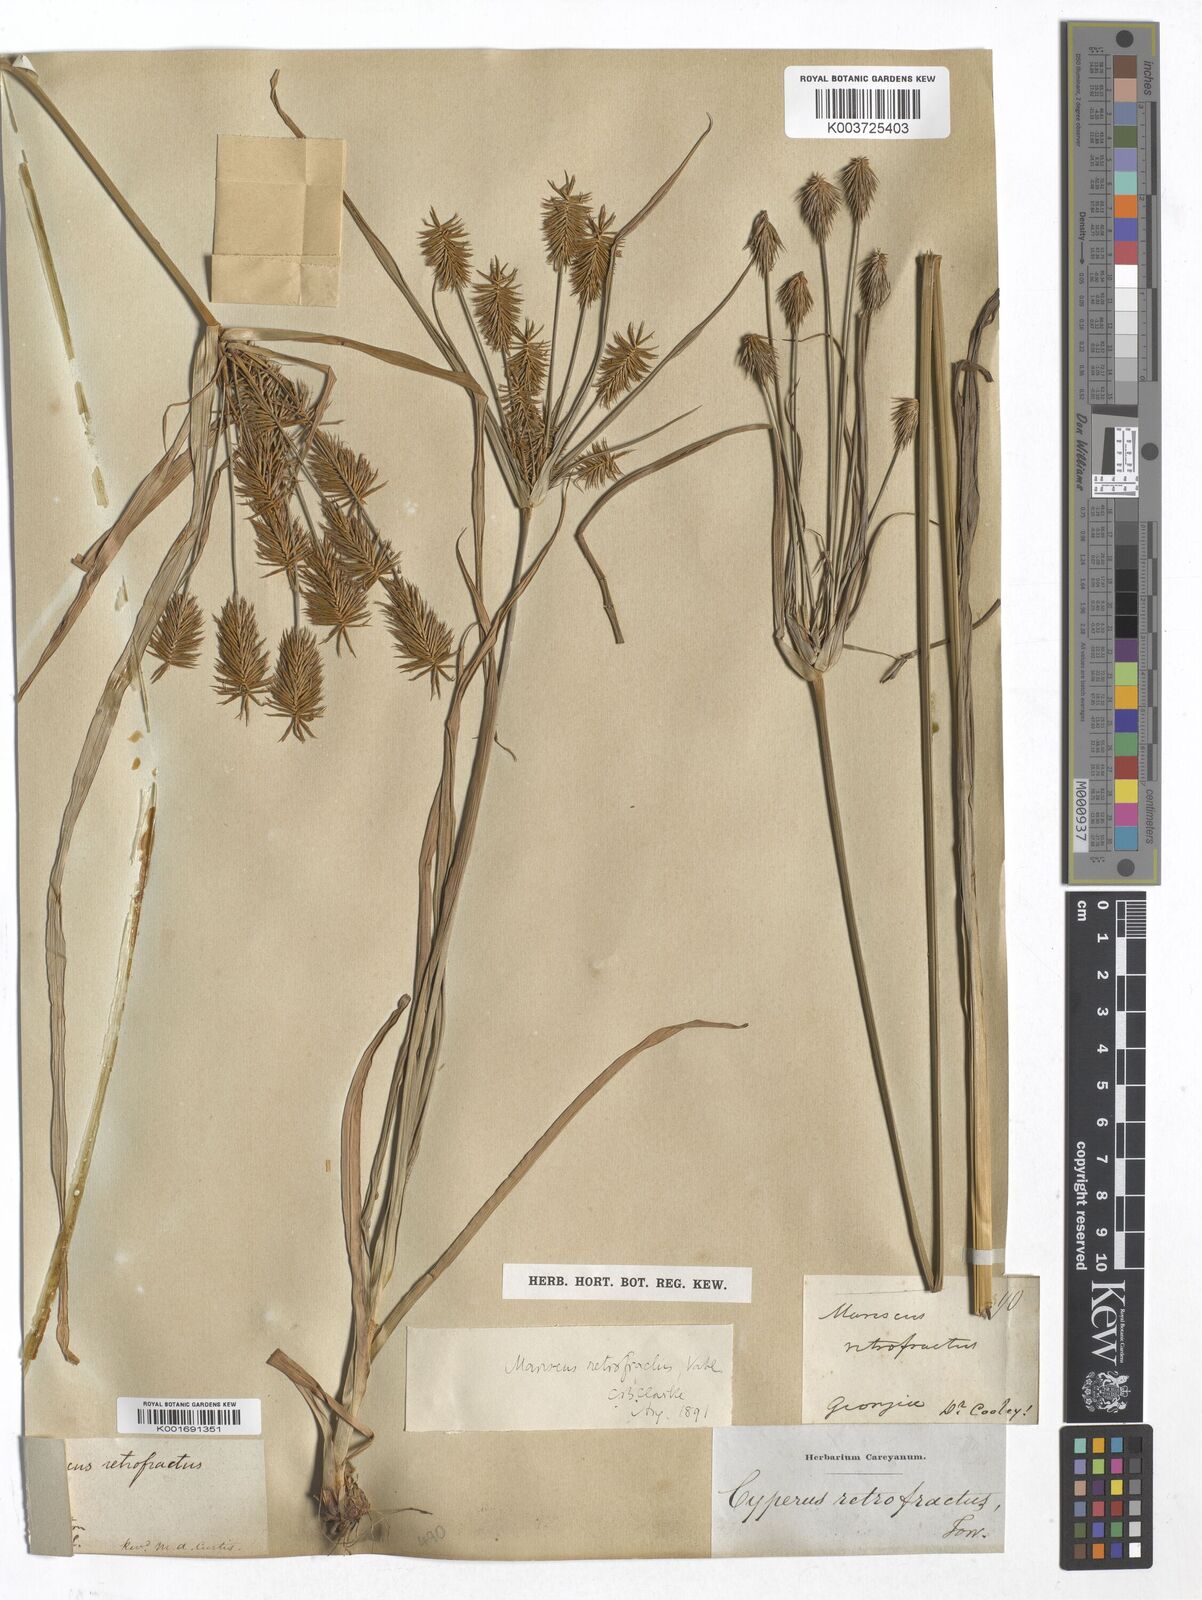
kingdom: Plantae
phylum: Tracheophyta
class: Liliopsida
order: Poales
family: Cyperaceae
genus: Cyperus
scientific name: Cyperus retrofractus
